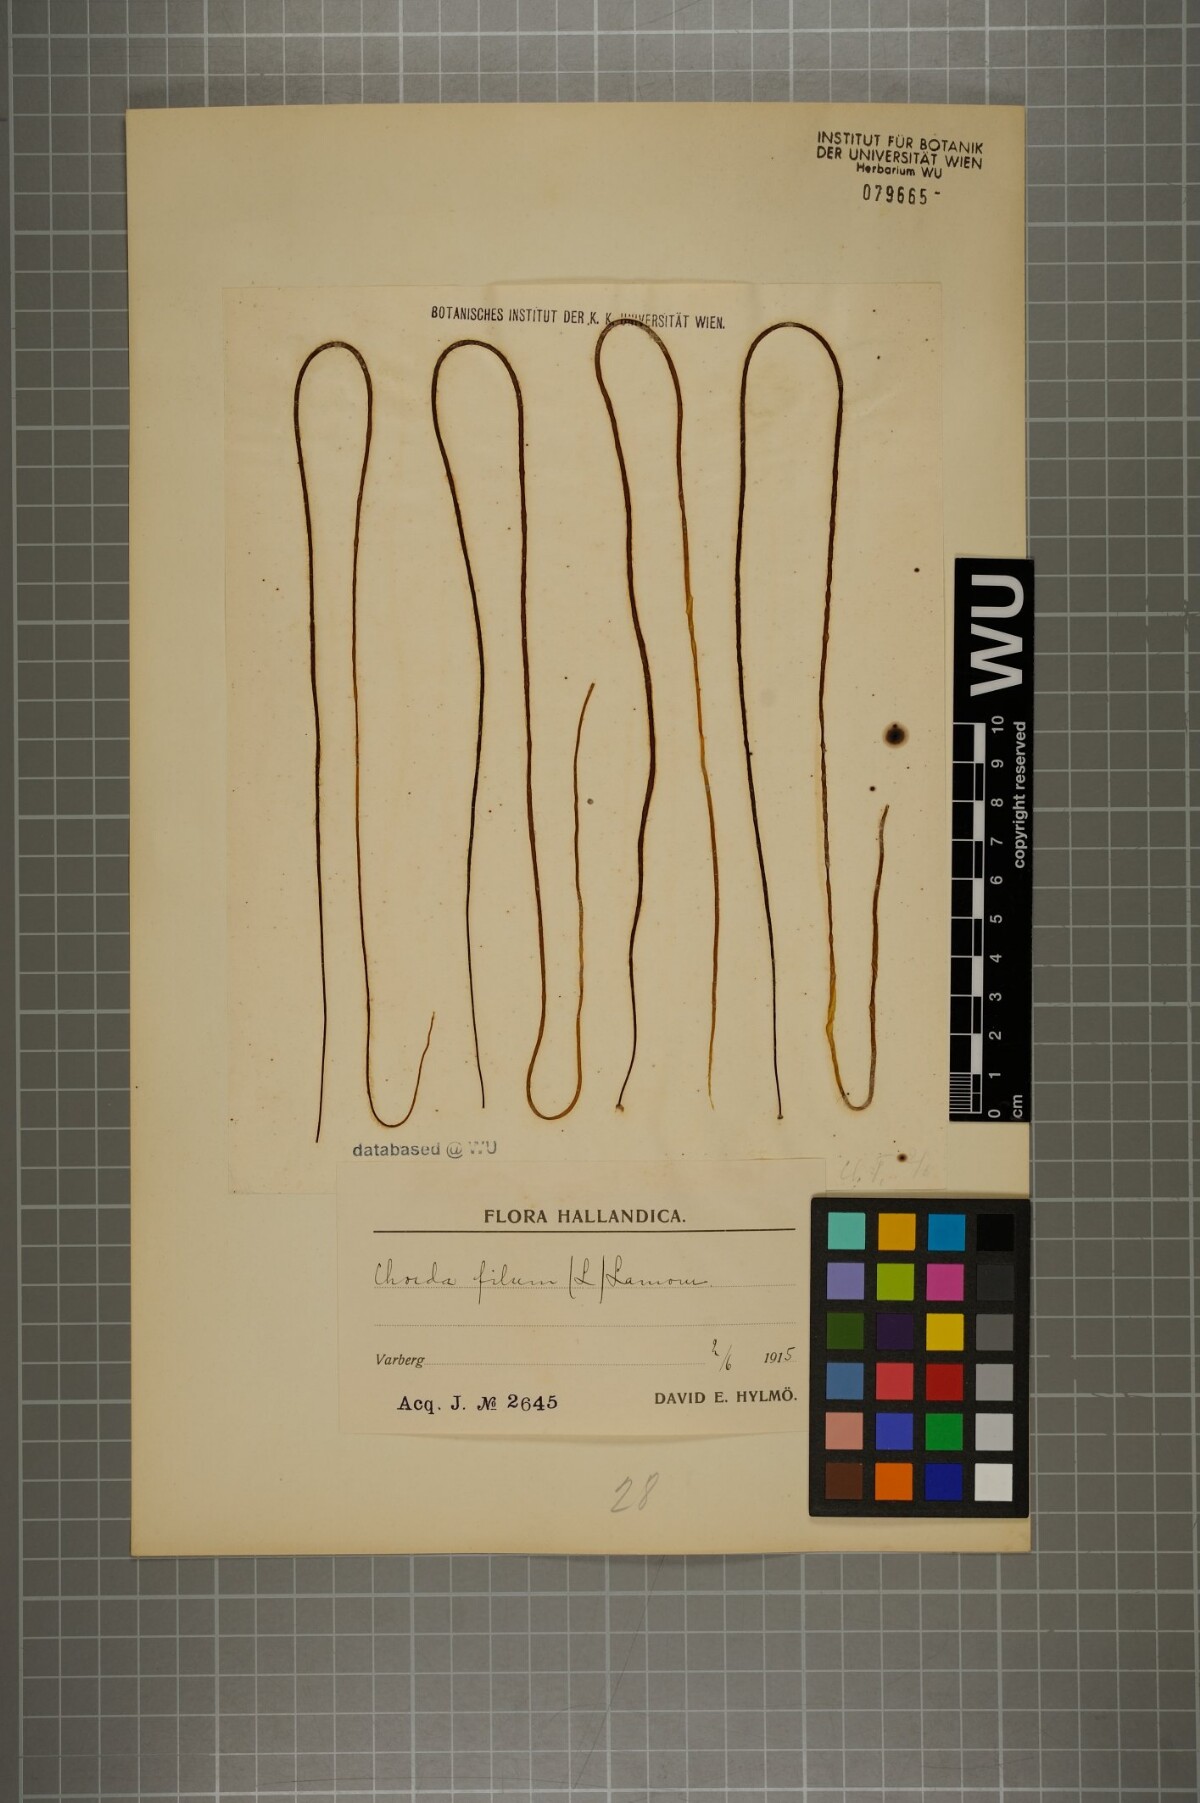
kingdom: Chromista
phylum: Ochrophyta
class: Phaeophyceae
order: Laminariales
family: Chordaceae
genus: Chorda
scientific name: Chorda filum
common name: Mermaid's tresses
